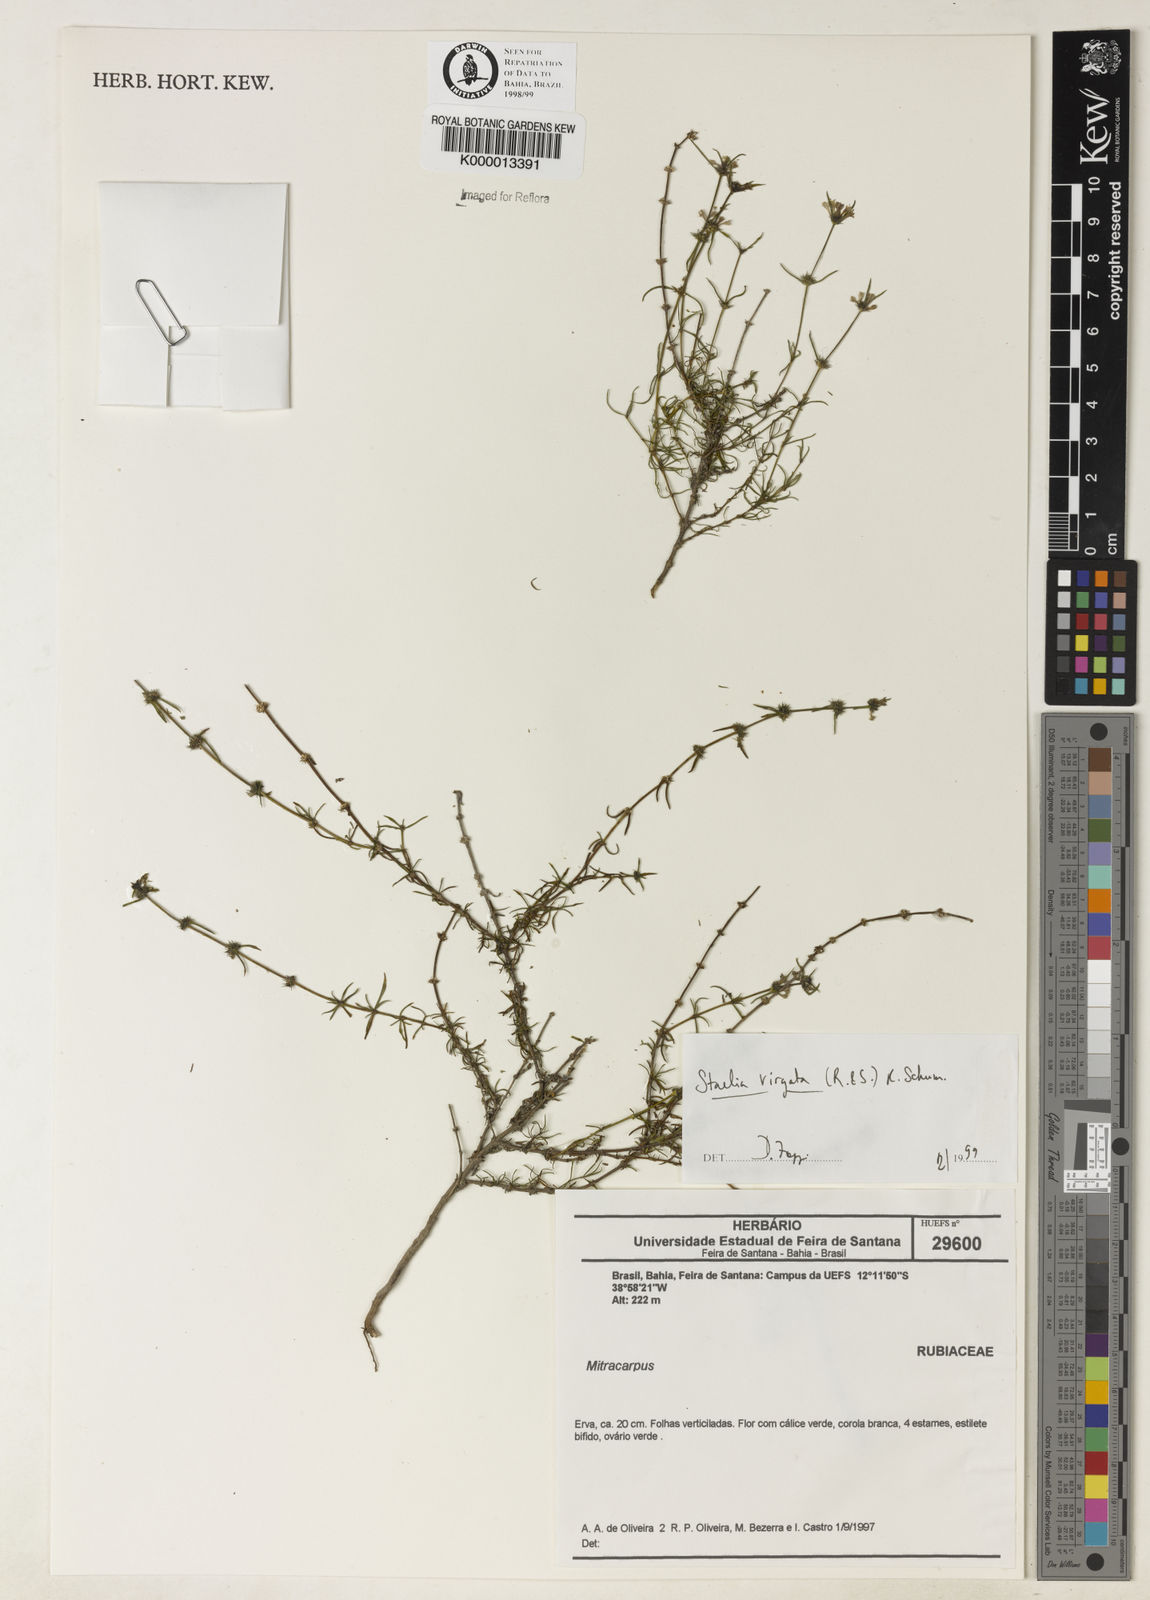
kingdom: Plantae
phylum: Tracheophyta
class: Magnoliopsida
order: Gentianales
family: Rubiaceae
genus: Staelia
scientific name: Staelia virgata
